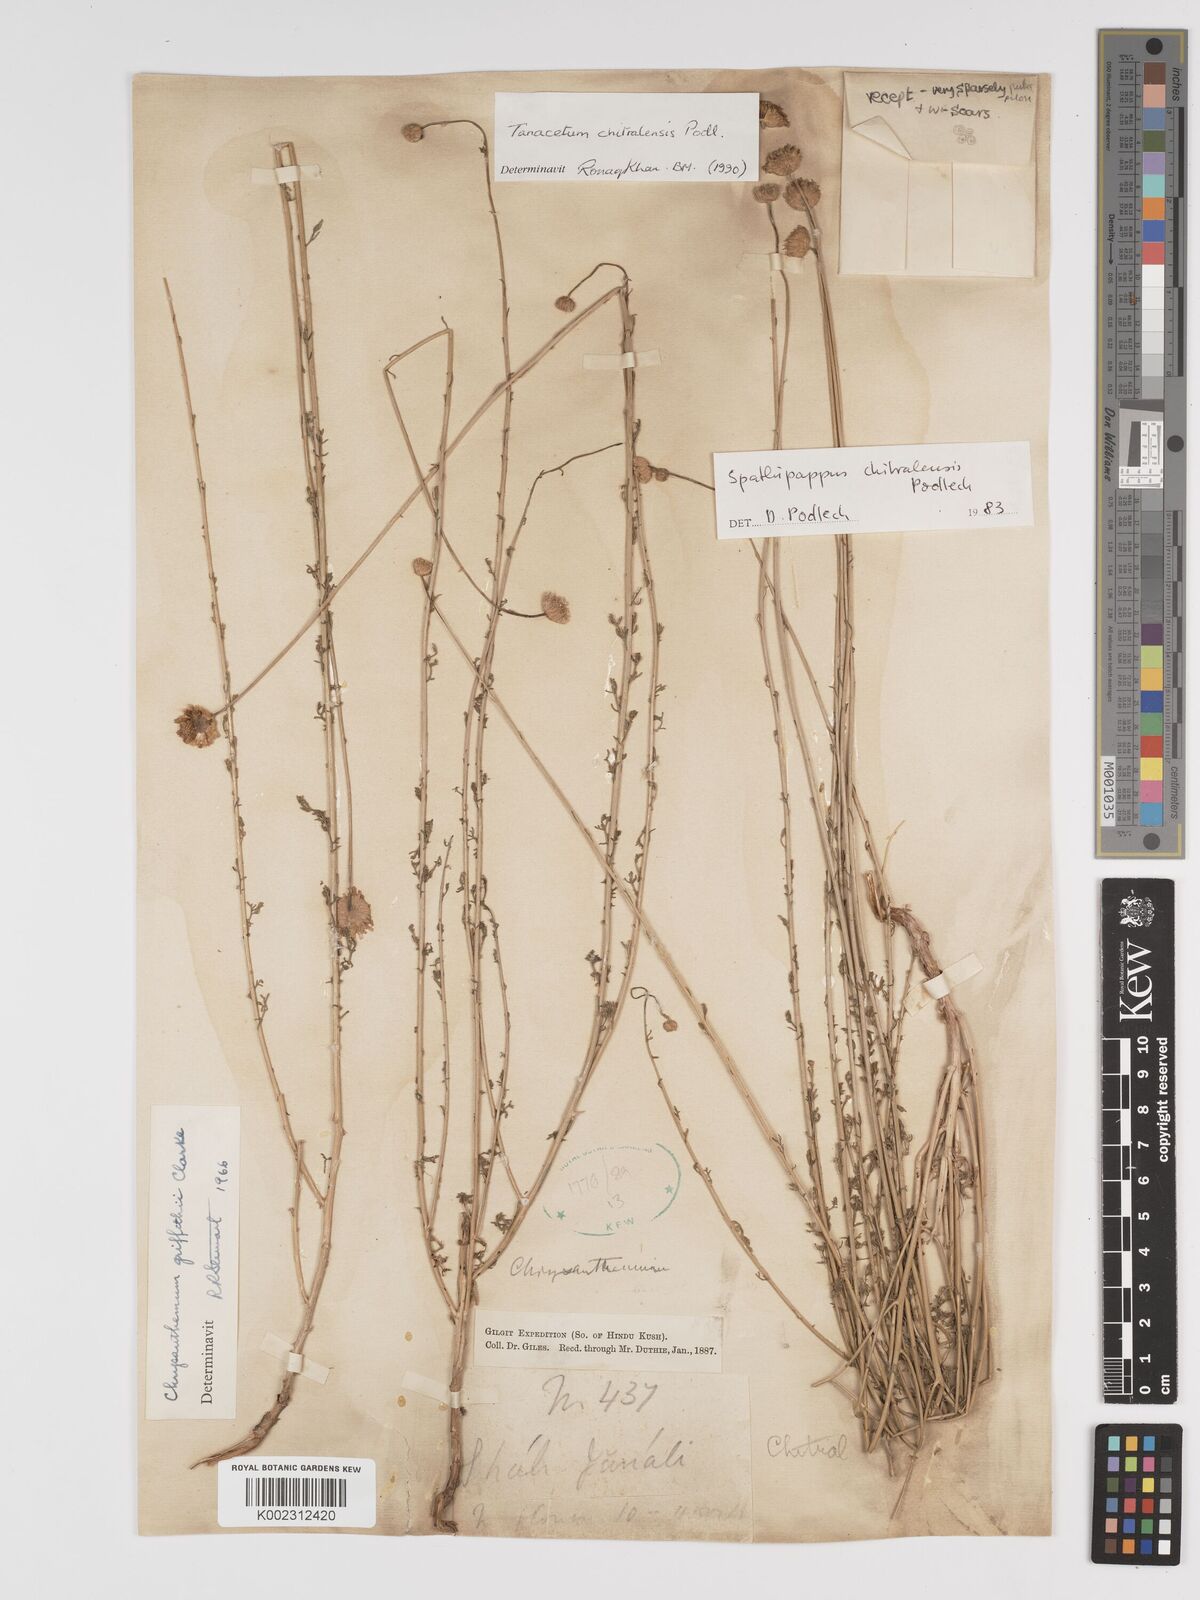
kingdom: Plantae
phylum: Tracheophyta
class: Magnoliopsida
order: Asterales
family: Asteraceae
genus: Tanacetum
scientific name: Tanacetum chitralense
